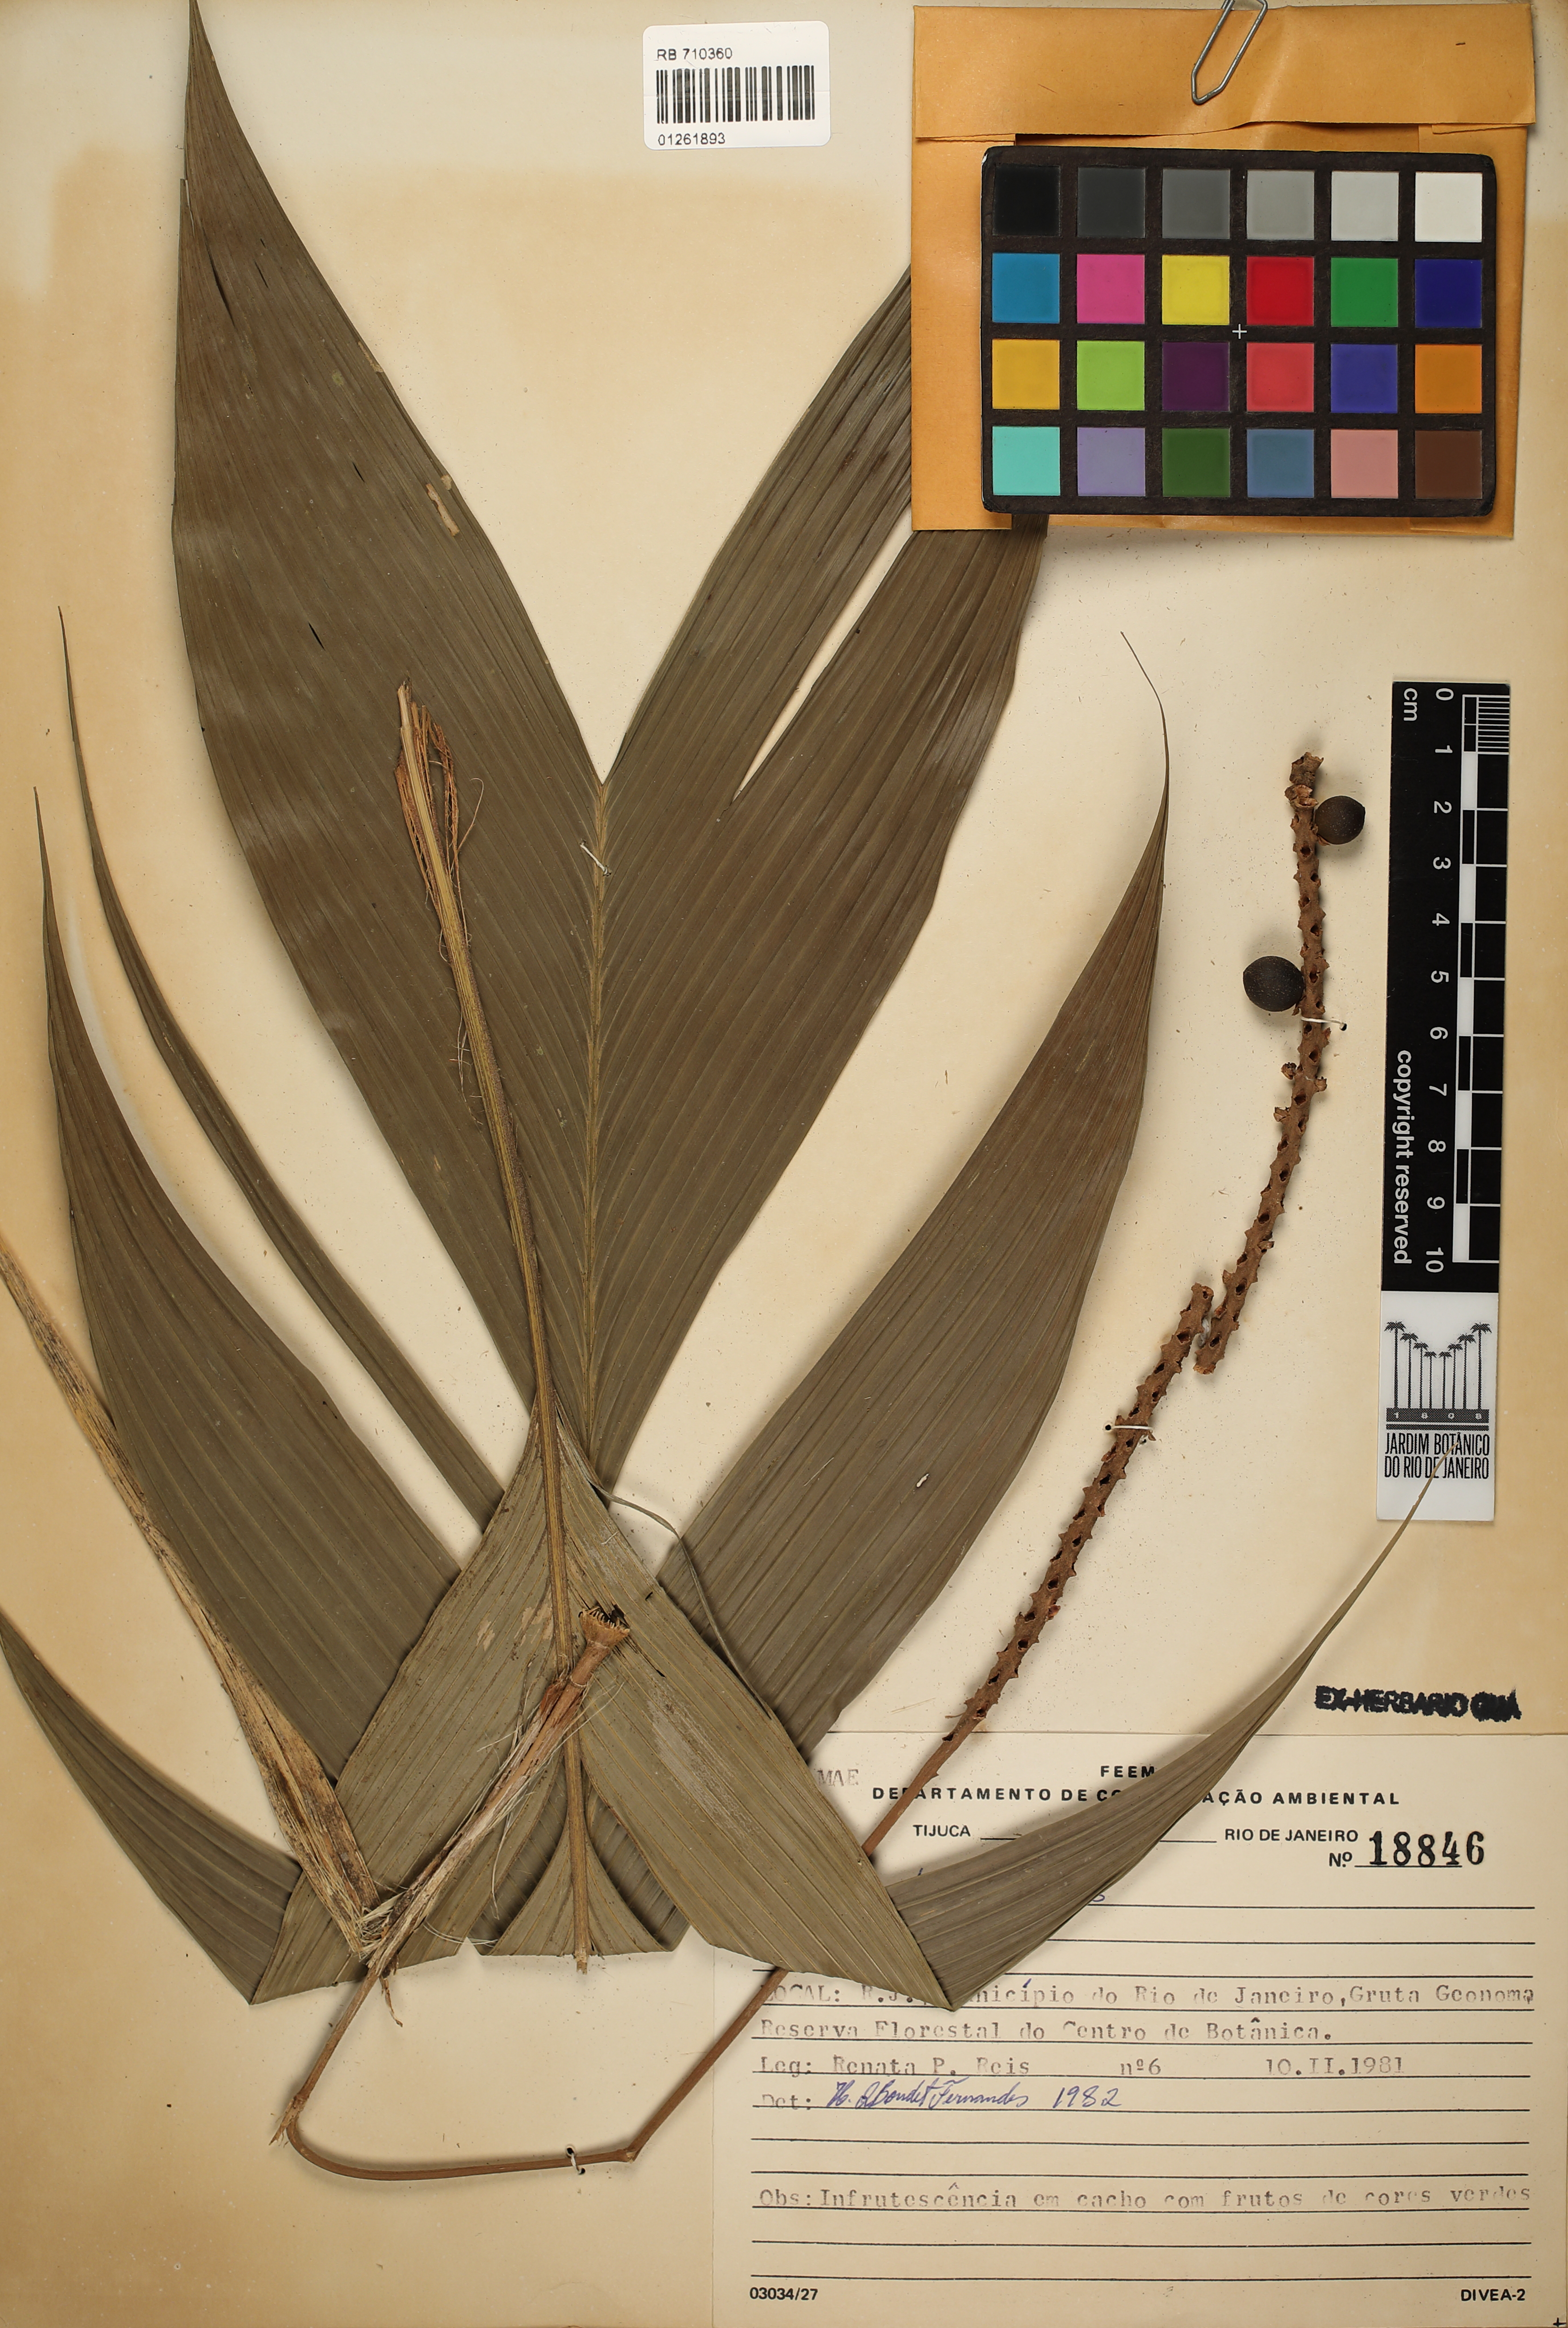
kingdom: Plantae
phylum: Tracheophyta
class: Liliopsida
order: Arecales
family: Arecaceae
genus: Geonoma
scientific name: Geonoma elegans
